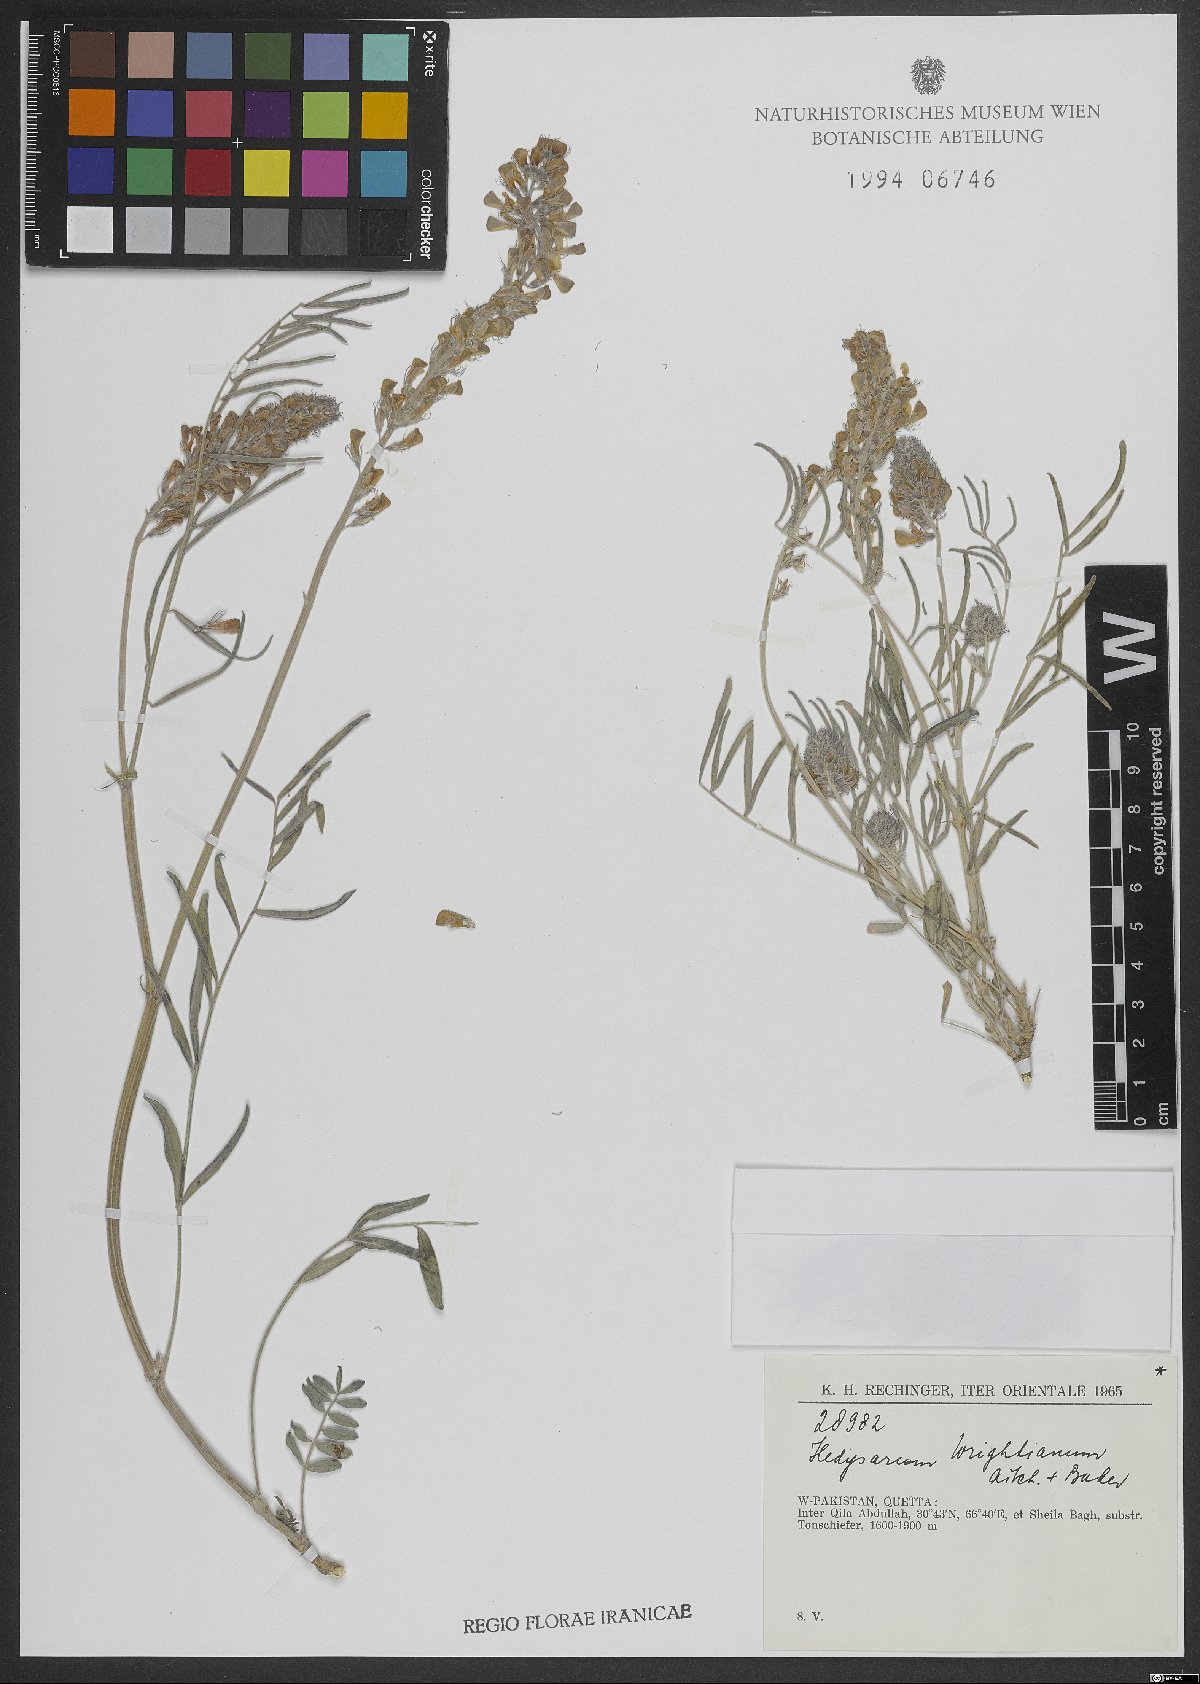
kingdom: Plantae
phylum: Tracheophyta
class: Magnoliopsida
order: Fabales
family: Fabaceae
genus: Hedysarum
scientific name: Hedysarum micropterum
